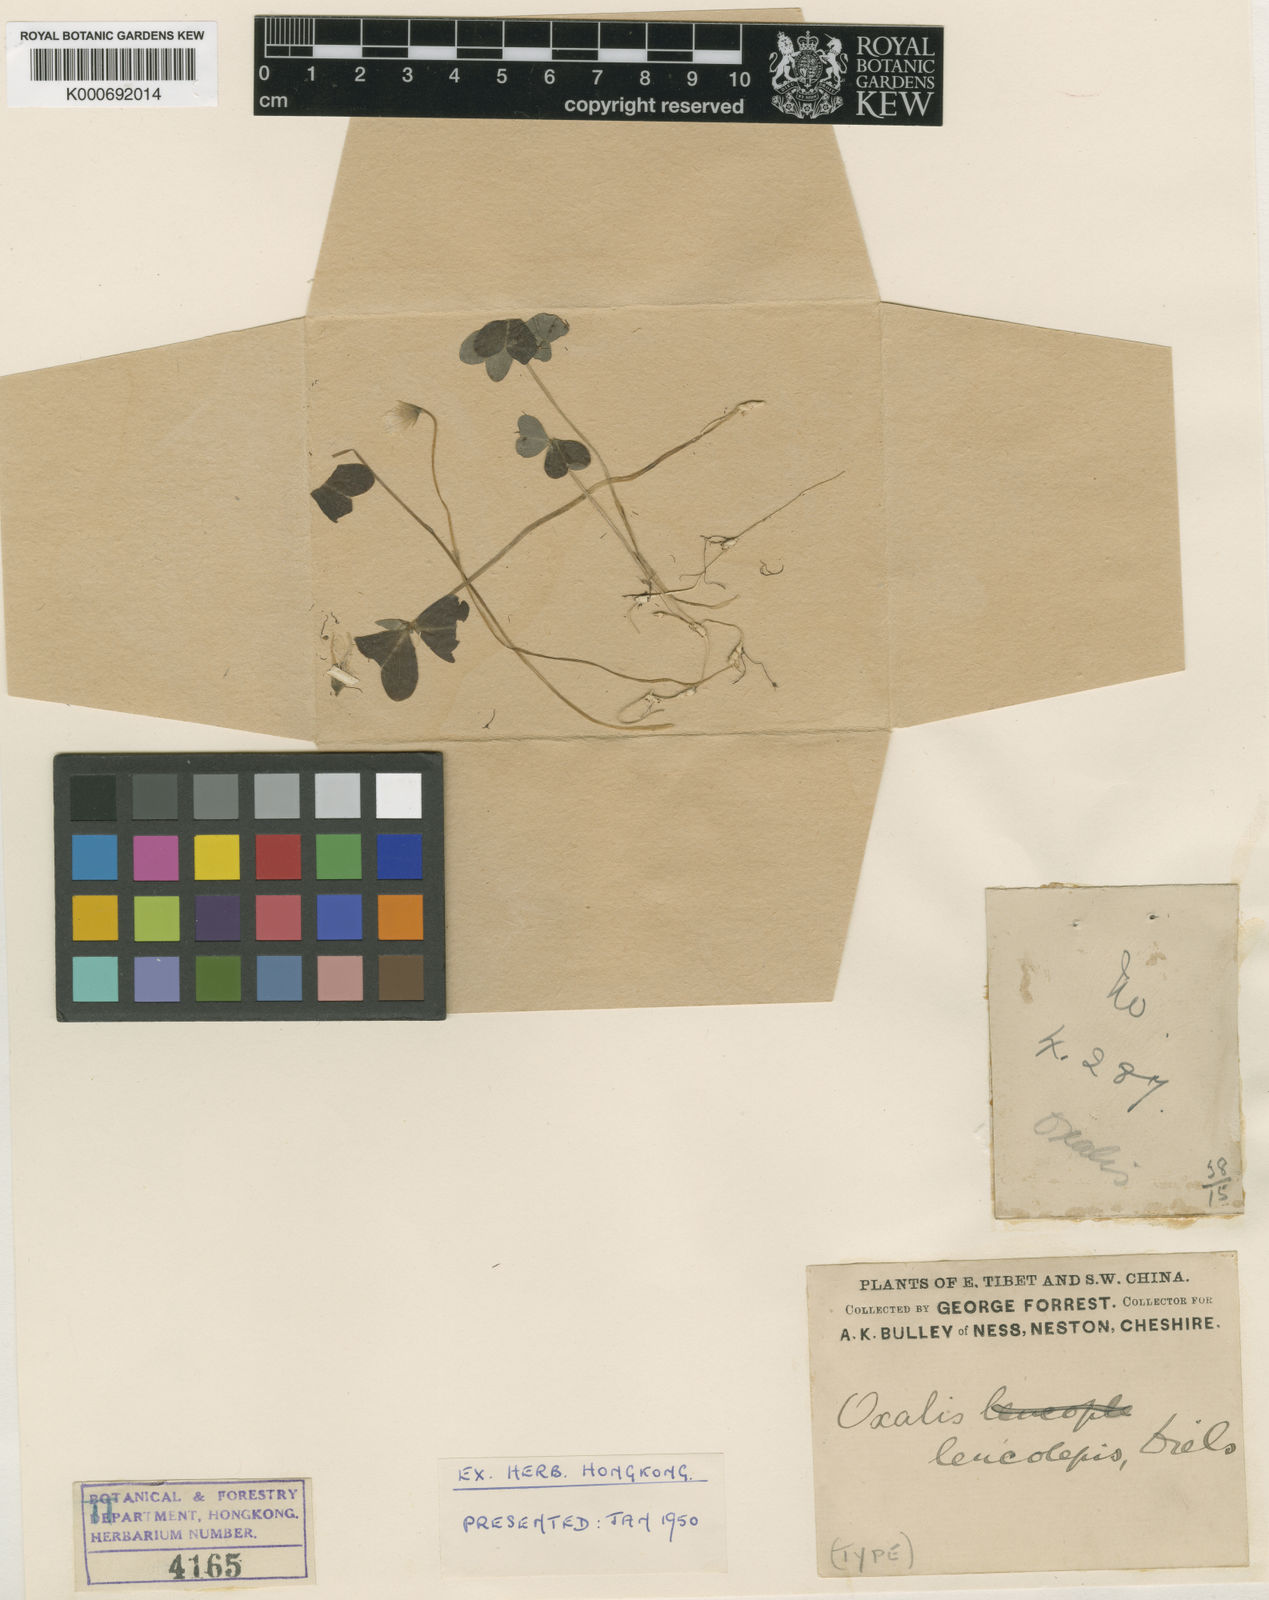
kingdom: Plantae
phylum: Tracheophyta
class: Magnoliopsida
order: Oxalidales
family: Oxalidaceae
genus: Oxalis
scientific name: Oxalis
